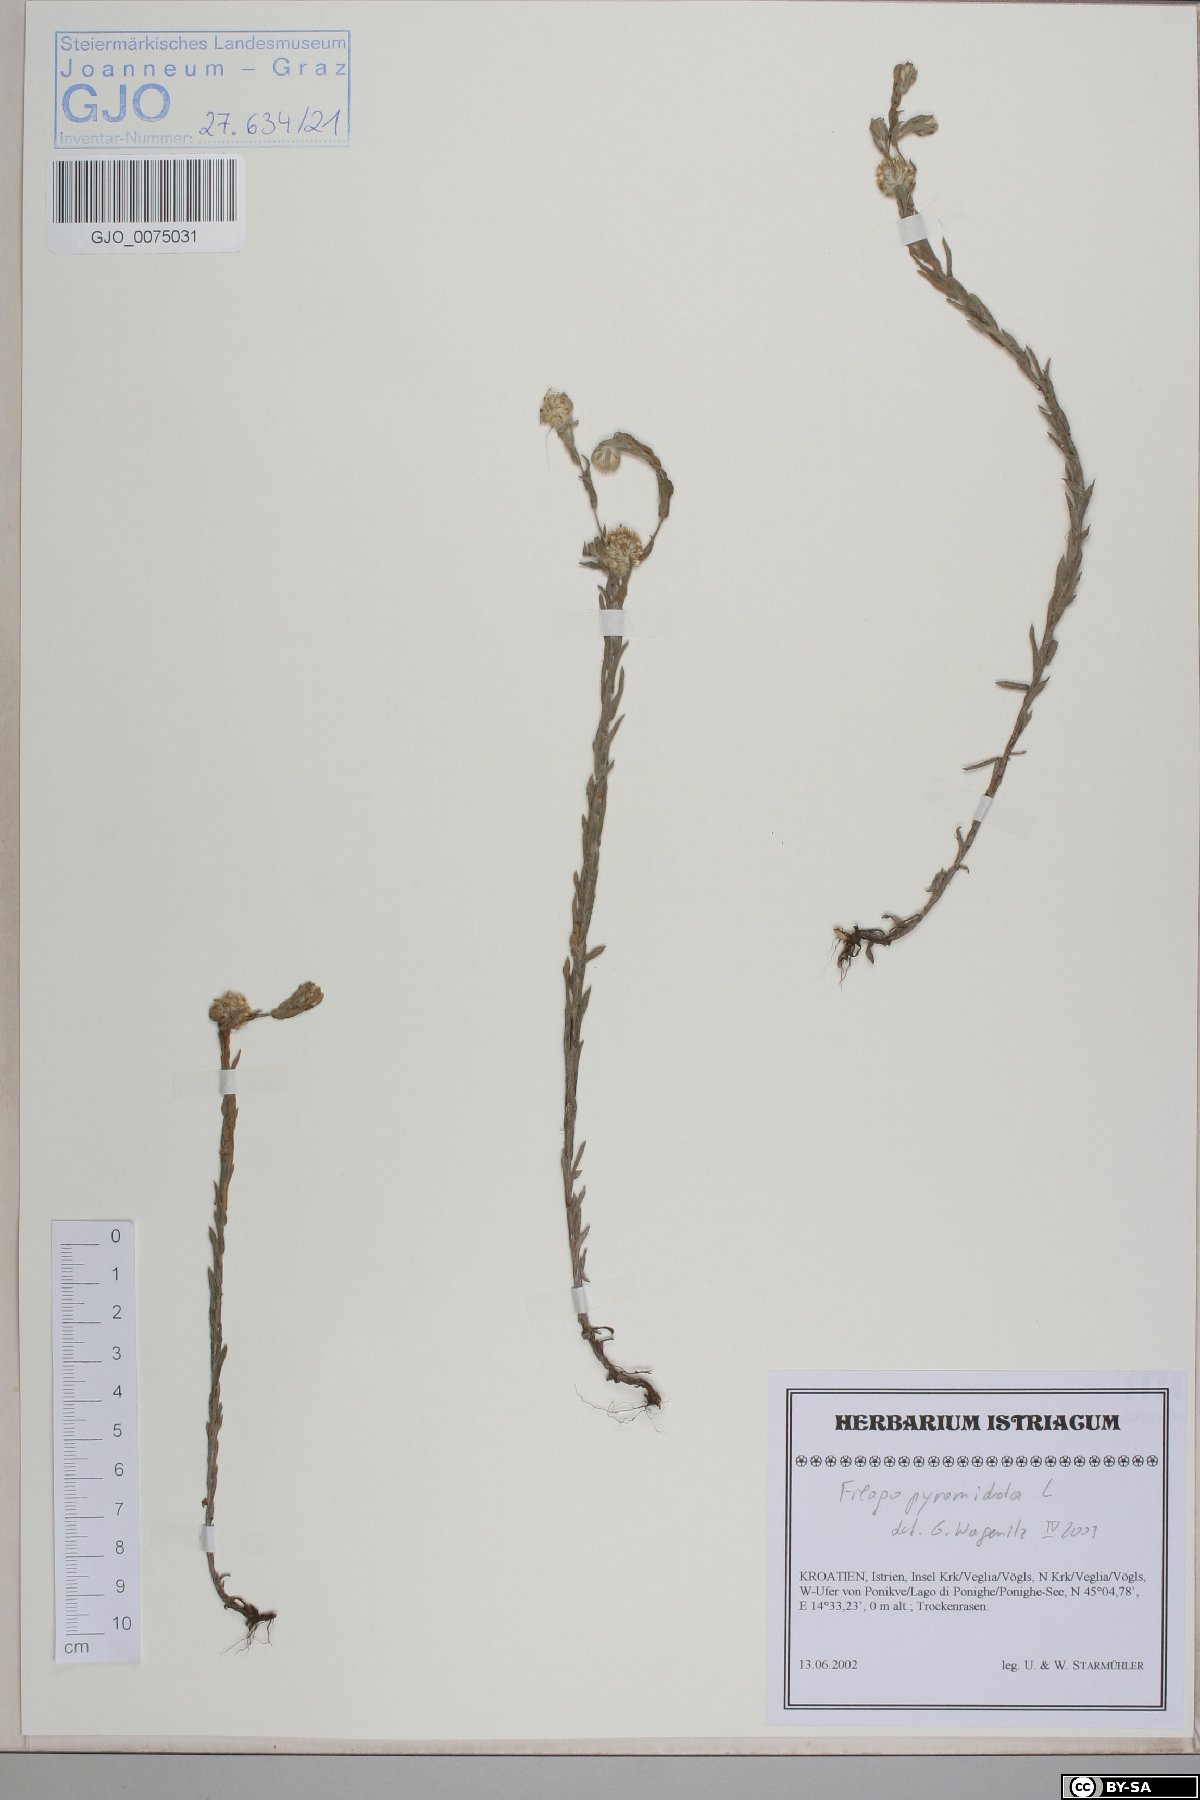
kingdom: Plantae
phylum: Tracheophyta
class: Magnoliopsida
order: Asterales
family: Asteraceae
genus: Filago
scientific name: Filago pyramidata
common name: Broad-leaved cudweed
